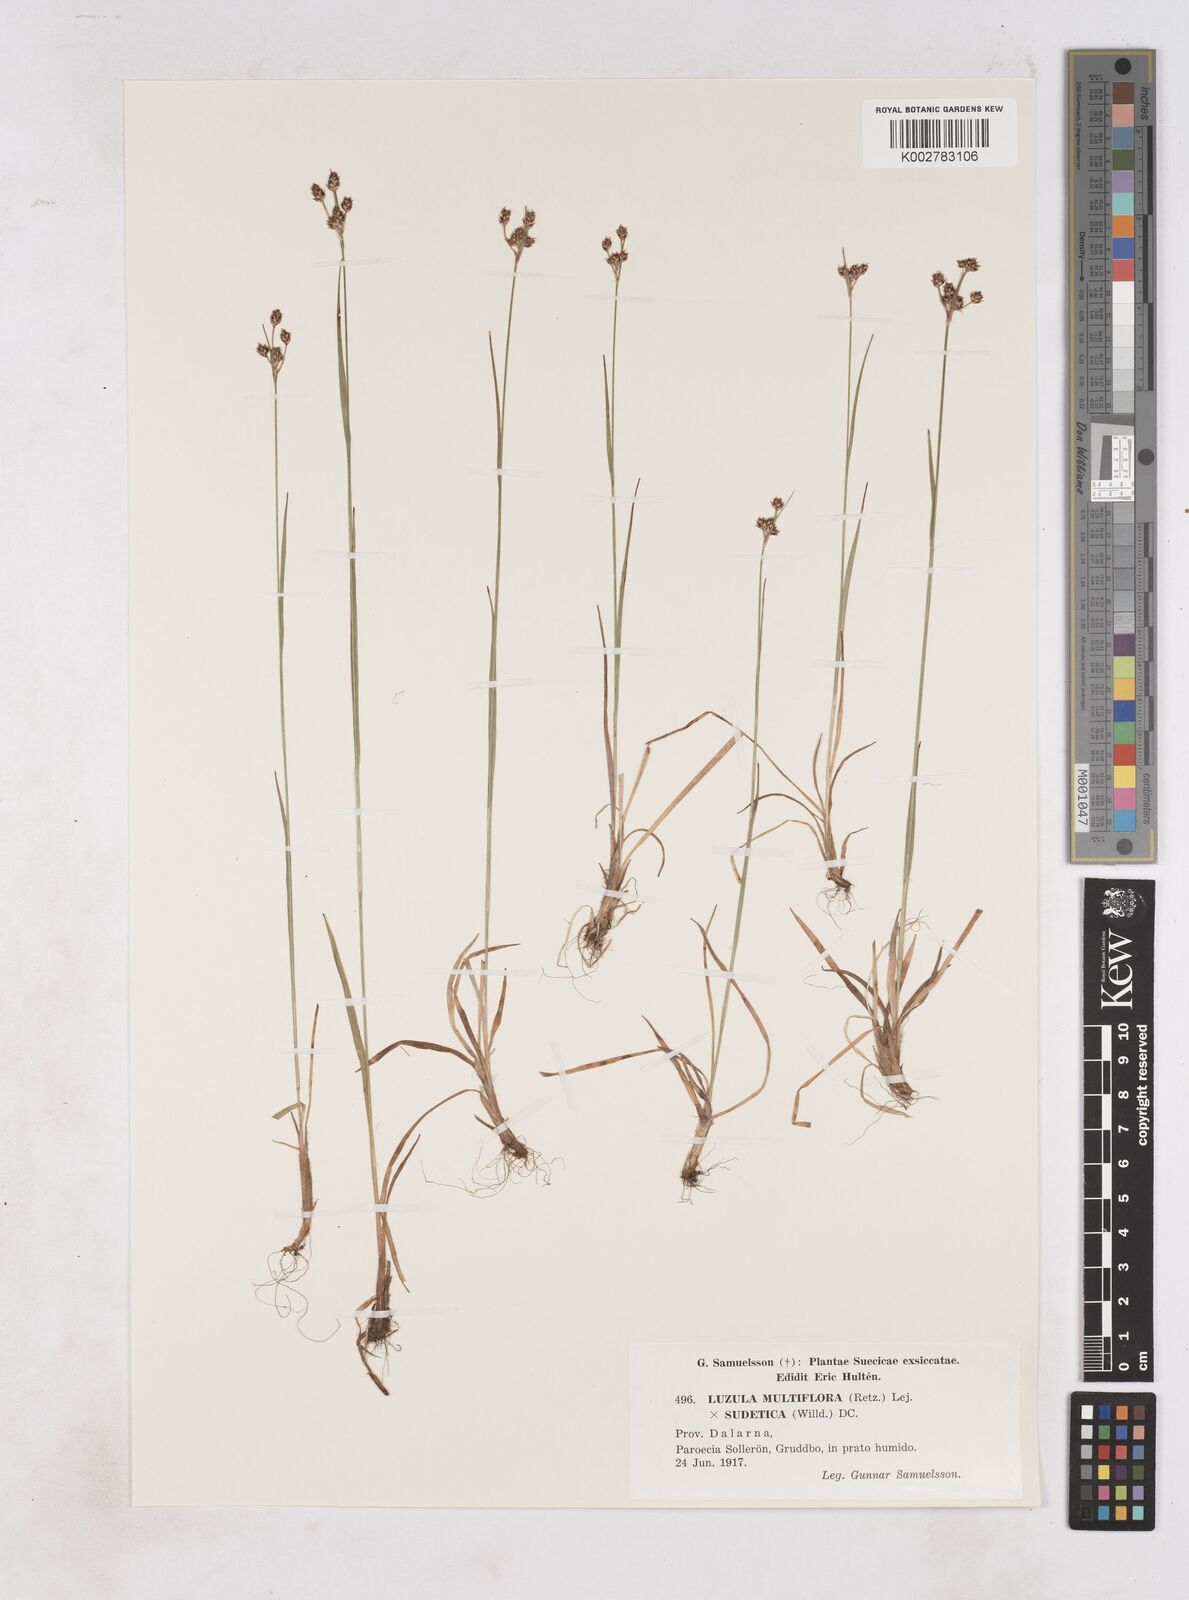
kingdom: Plantae
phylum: Tracheophyta
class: Liliopsida
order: Poales
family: Juncaceae
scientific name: Juncaceae
